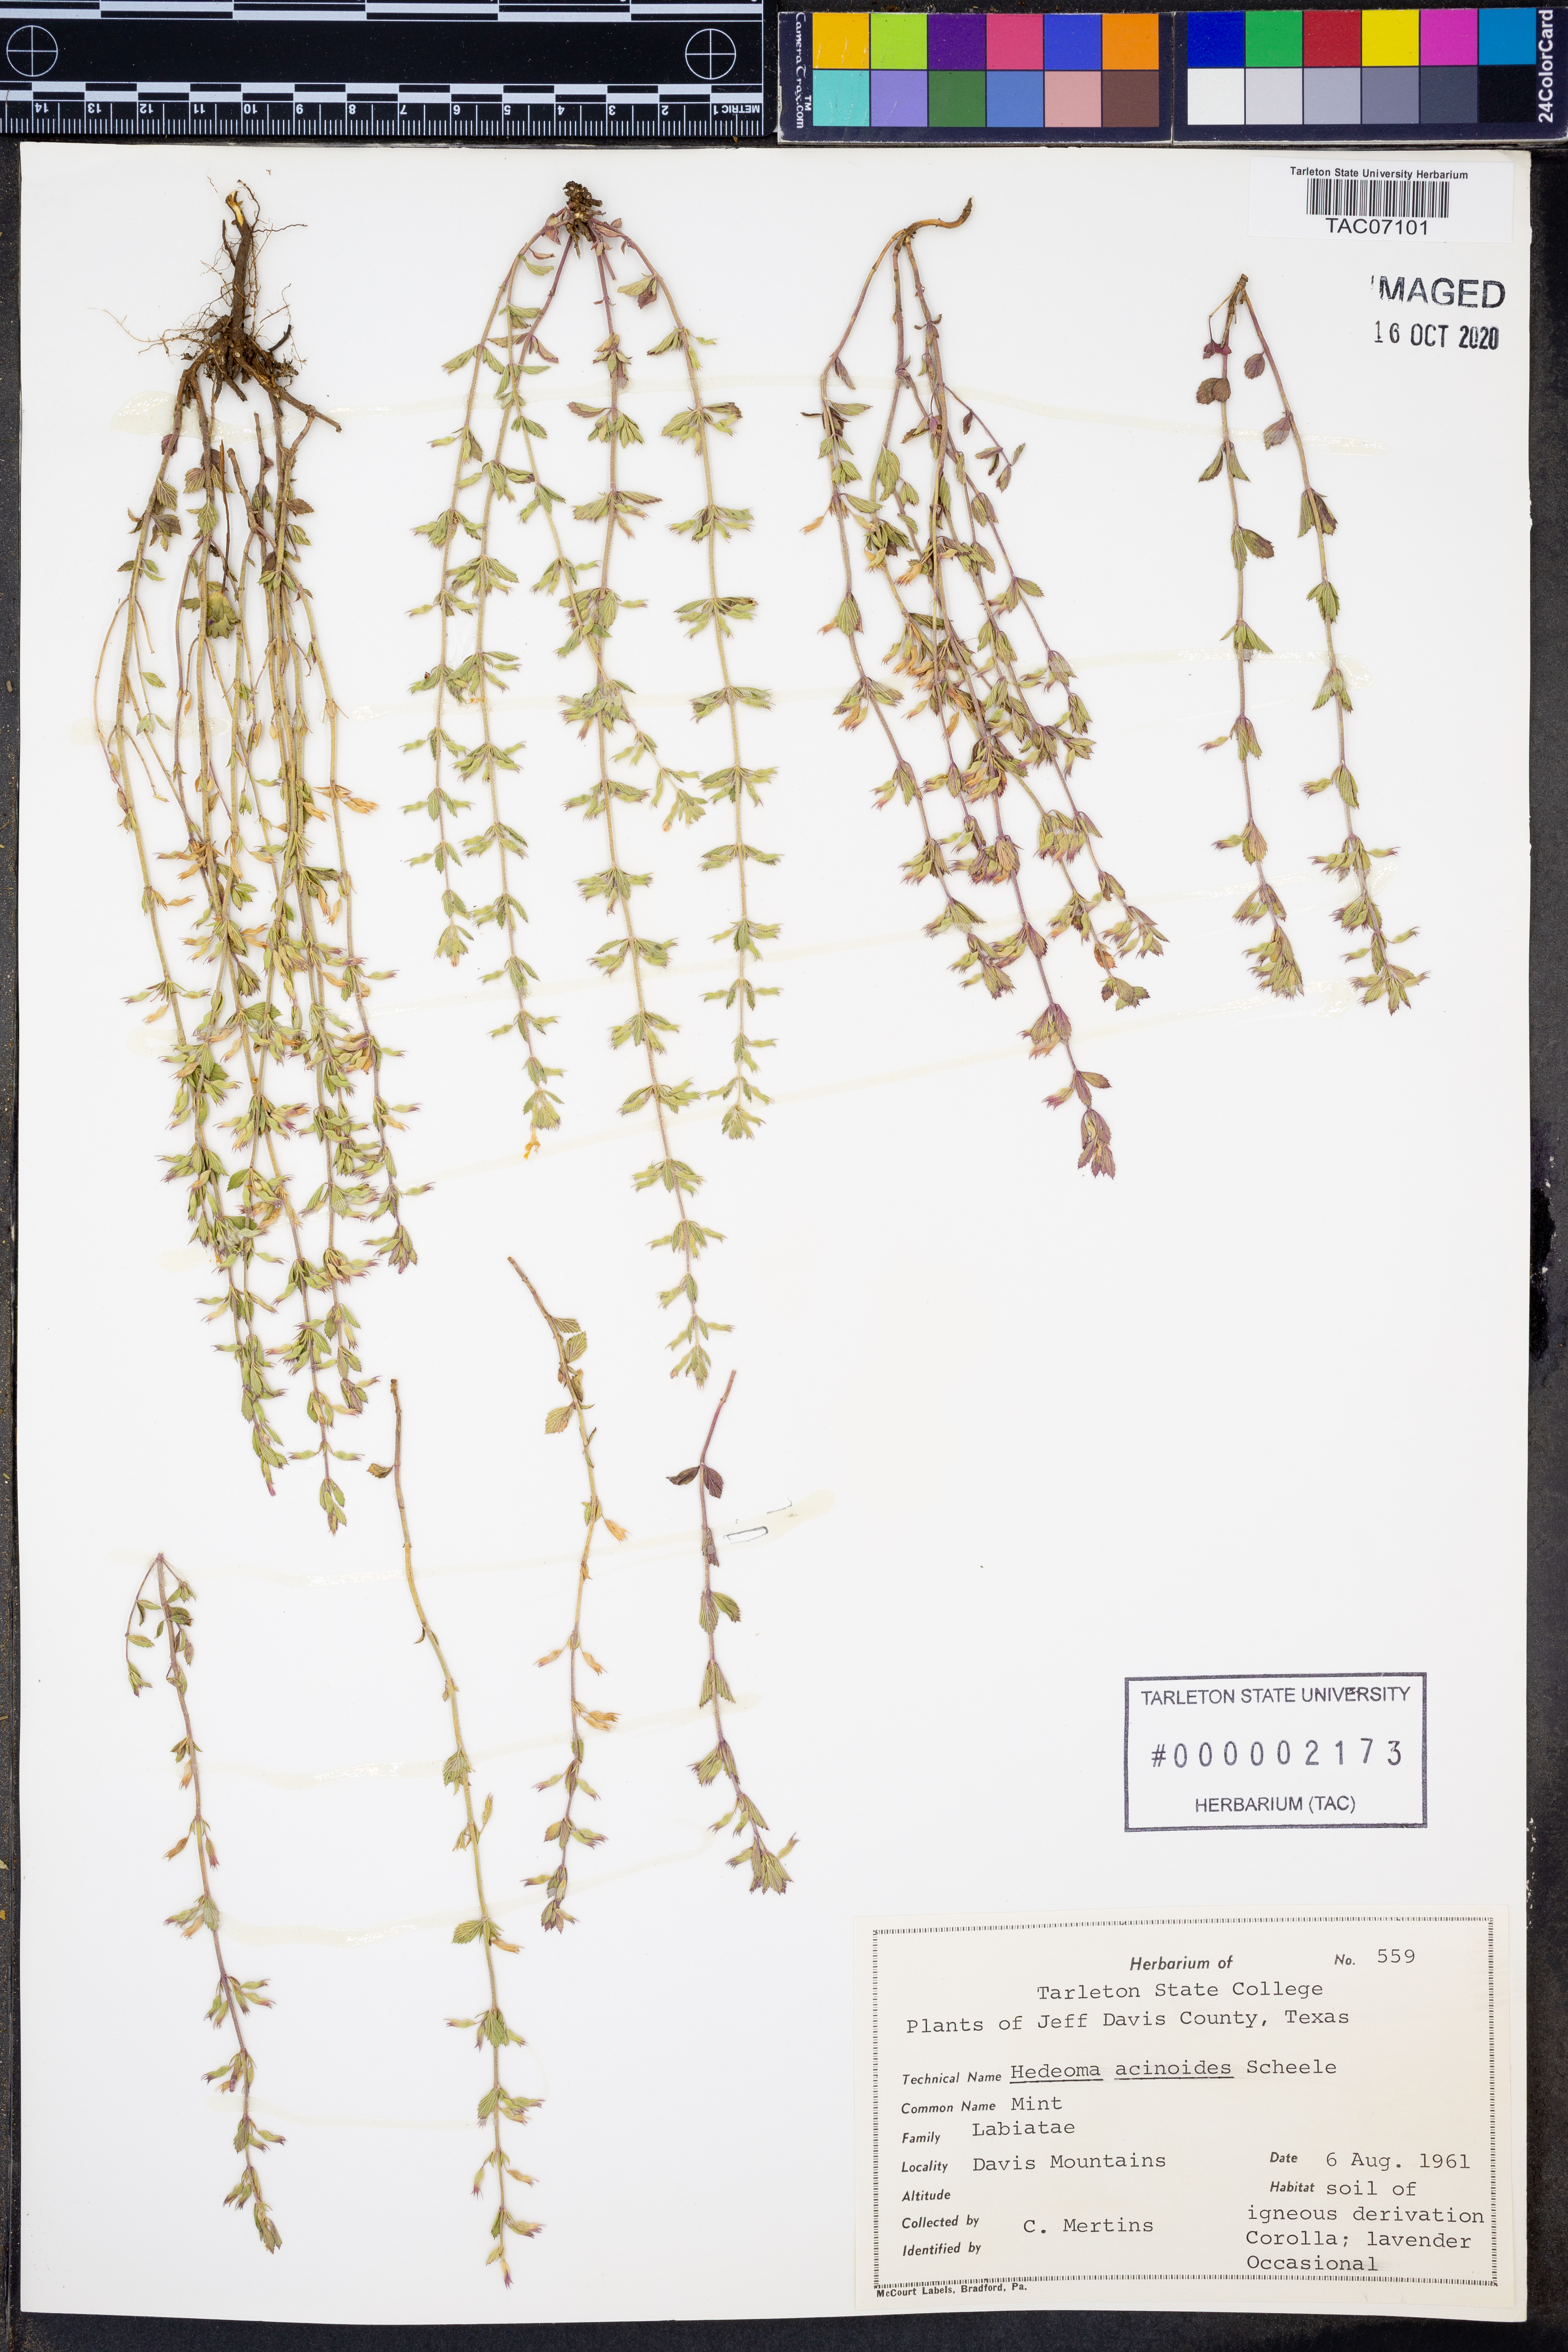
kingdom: Plantae
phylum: Tracheophyta
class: Magnoliopsida
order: Lamiales
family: Lamiaceae
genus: Hedeoma
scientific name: Hedeoma acinoides
